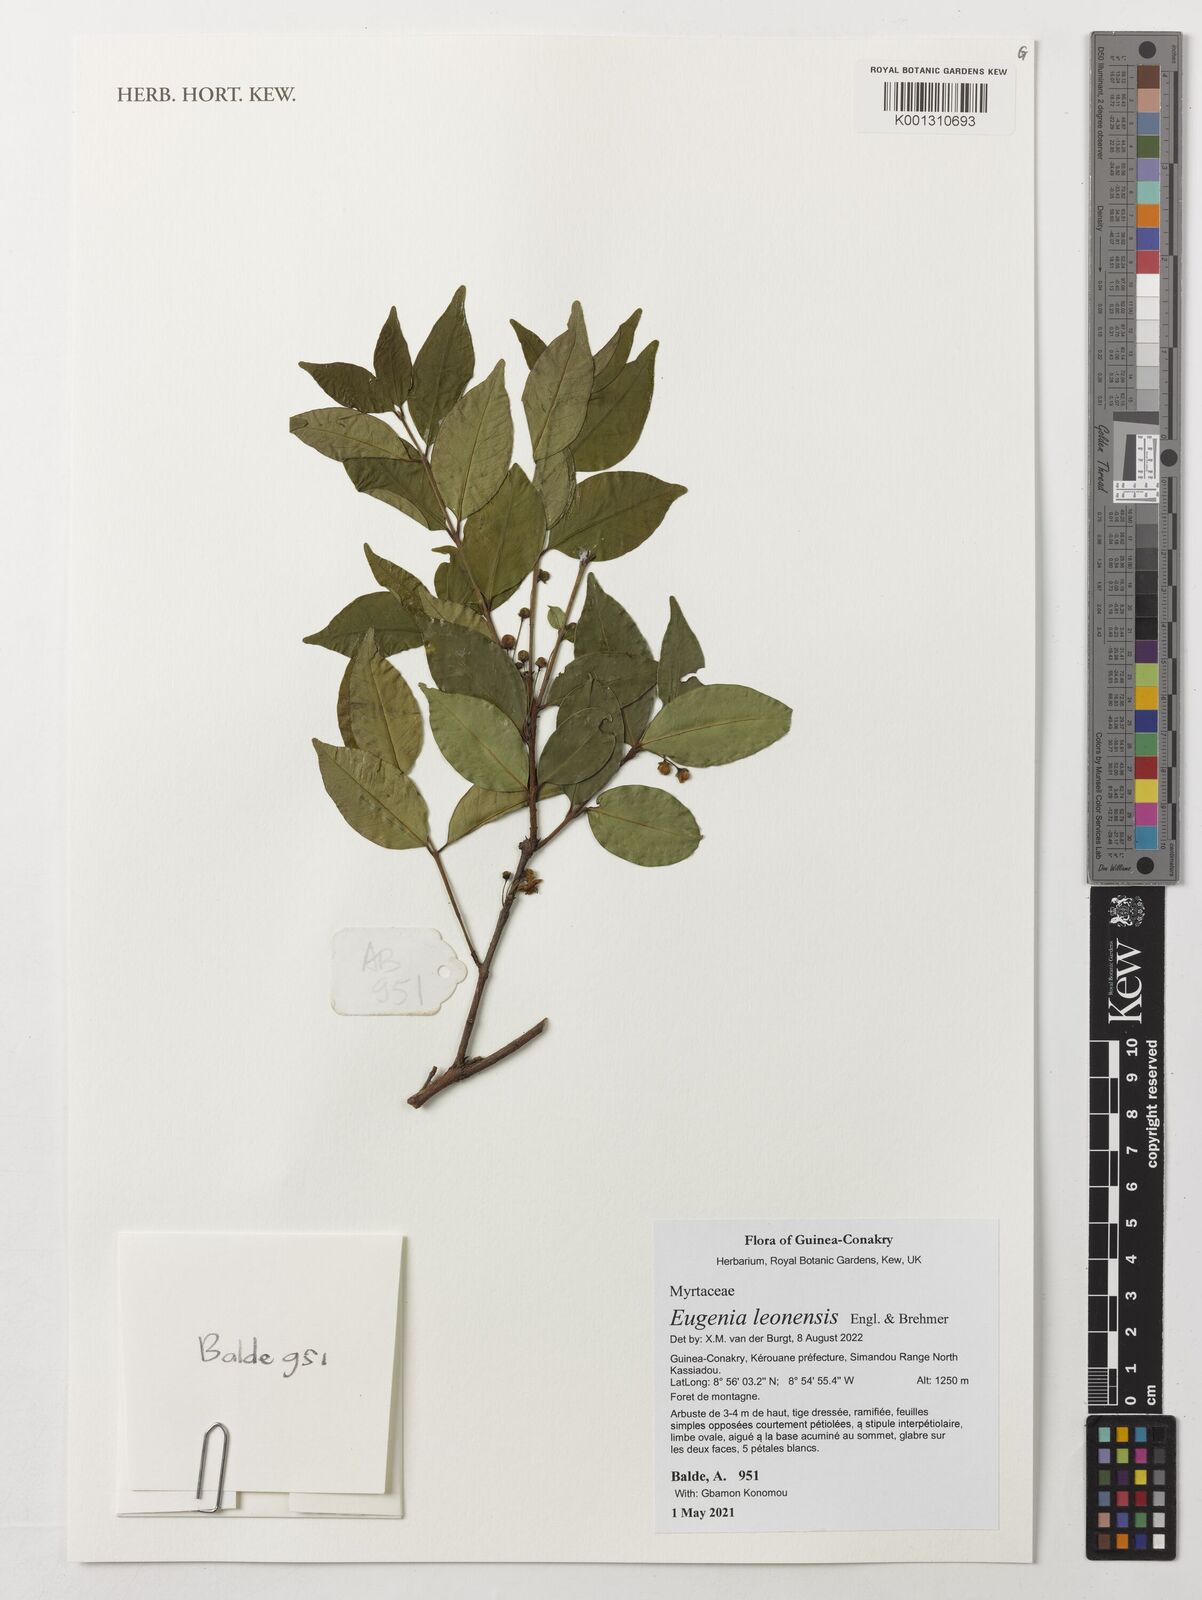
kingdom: Plantae
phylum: Tracheophyta
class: Magnoliopsida
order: Myrtales
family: Myrtaceae
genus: Eugenia
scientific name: Eugenia leonensis
